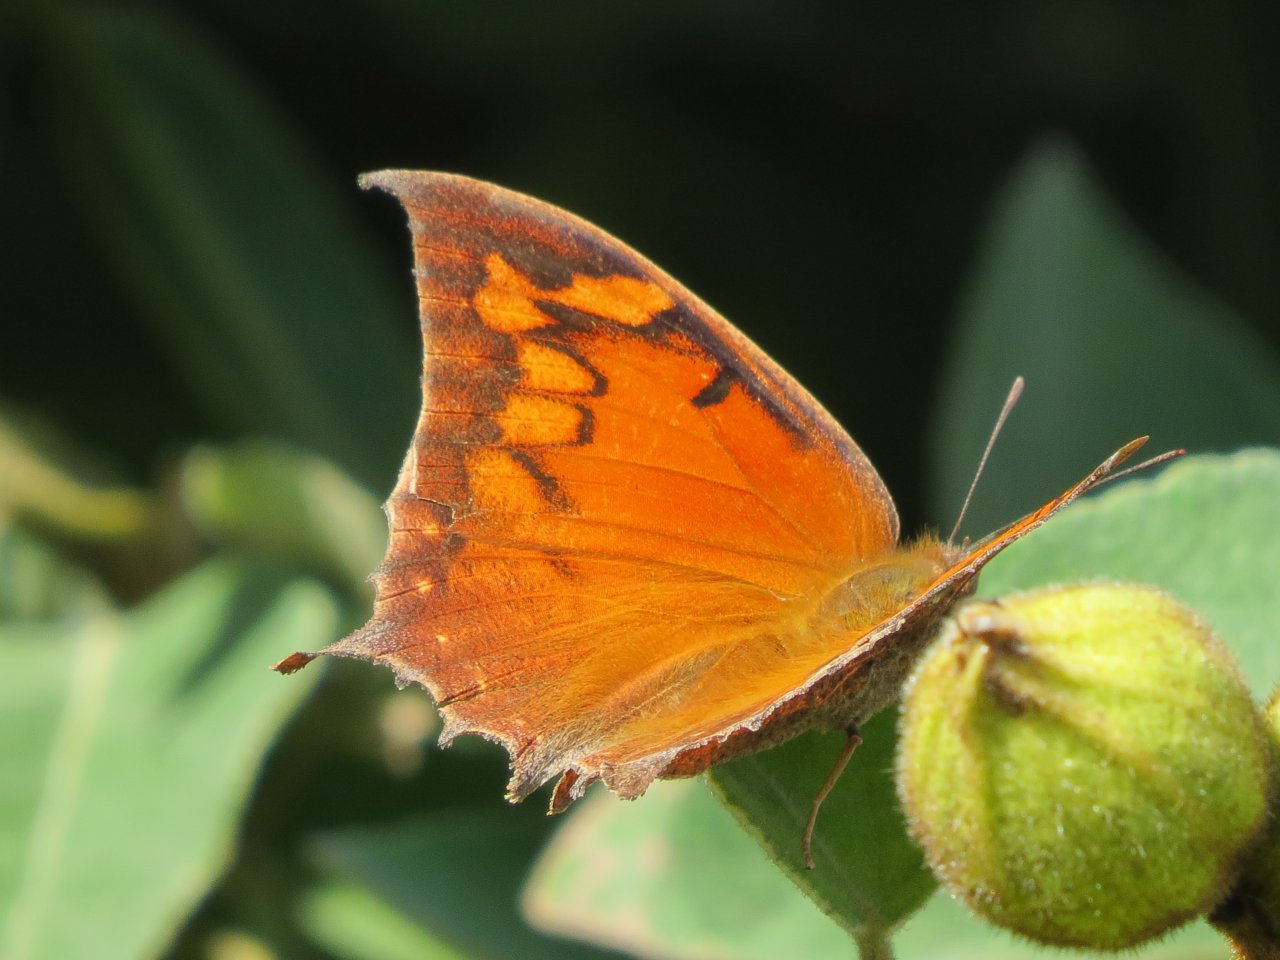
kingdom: Animalia
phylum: Arthropoda
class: Insecta
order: Lepidoptera
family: Nymphalidae
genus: Anaea
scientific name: Anaea aidea
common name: Tropical Leafwing
